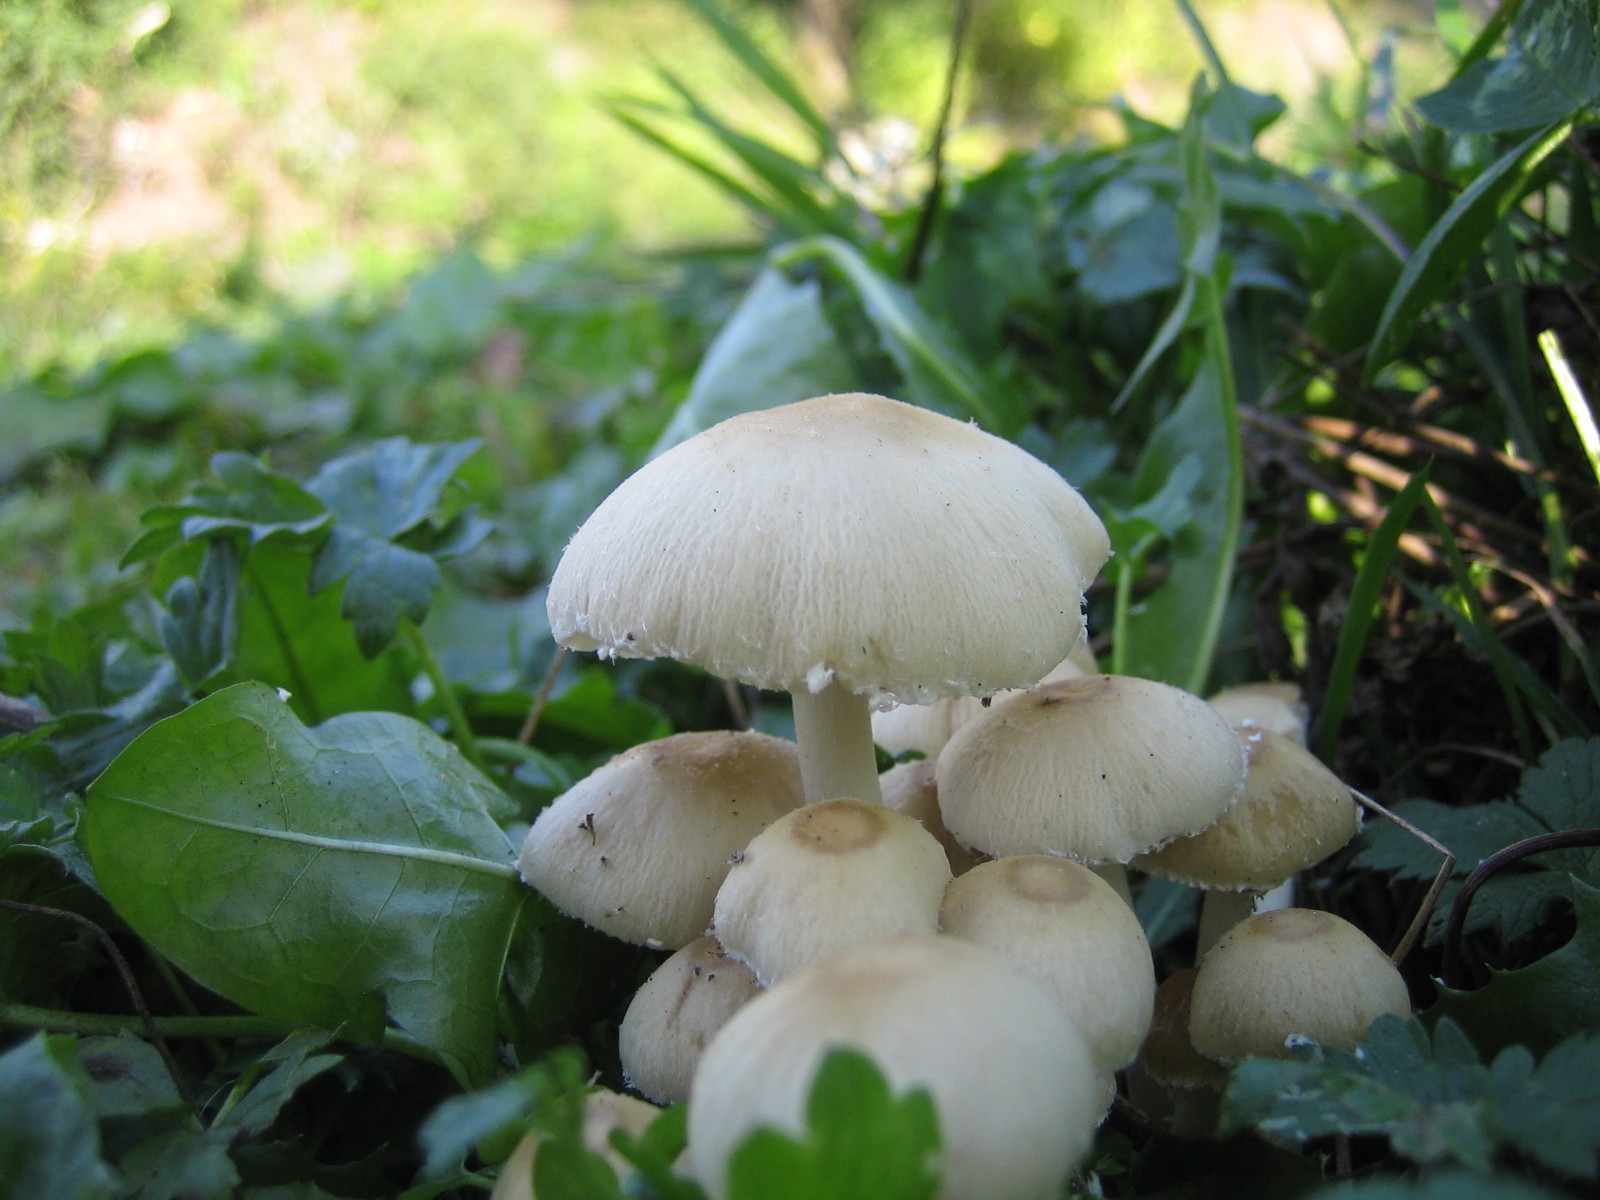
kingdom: Fungi
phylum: Basidiomycota
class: Agaricomycetes
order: Agaricales
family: Psathyrellaceae
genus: Candolleomyces
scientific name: Candolleomyces candolleanus
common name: Candolles mørkhat
